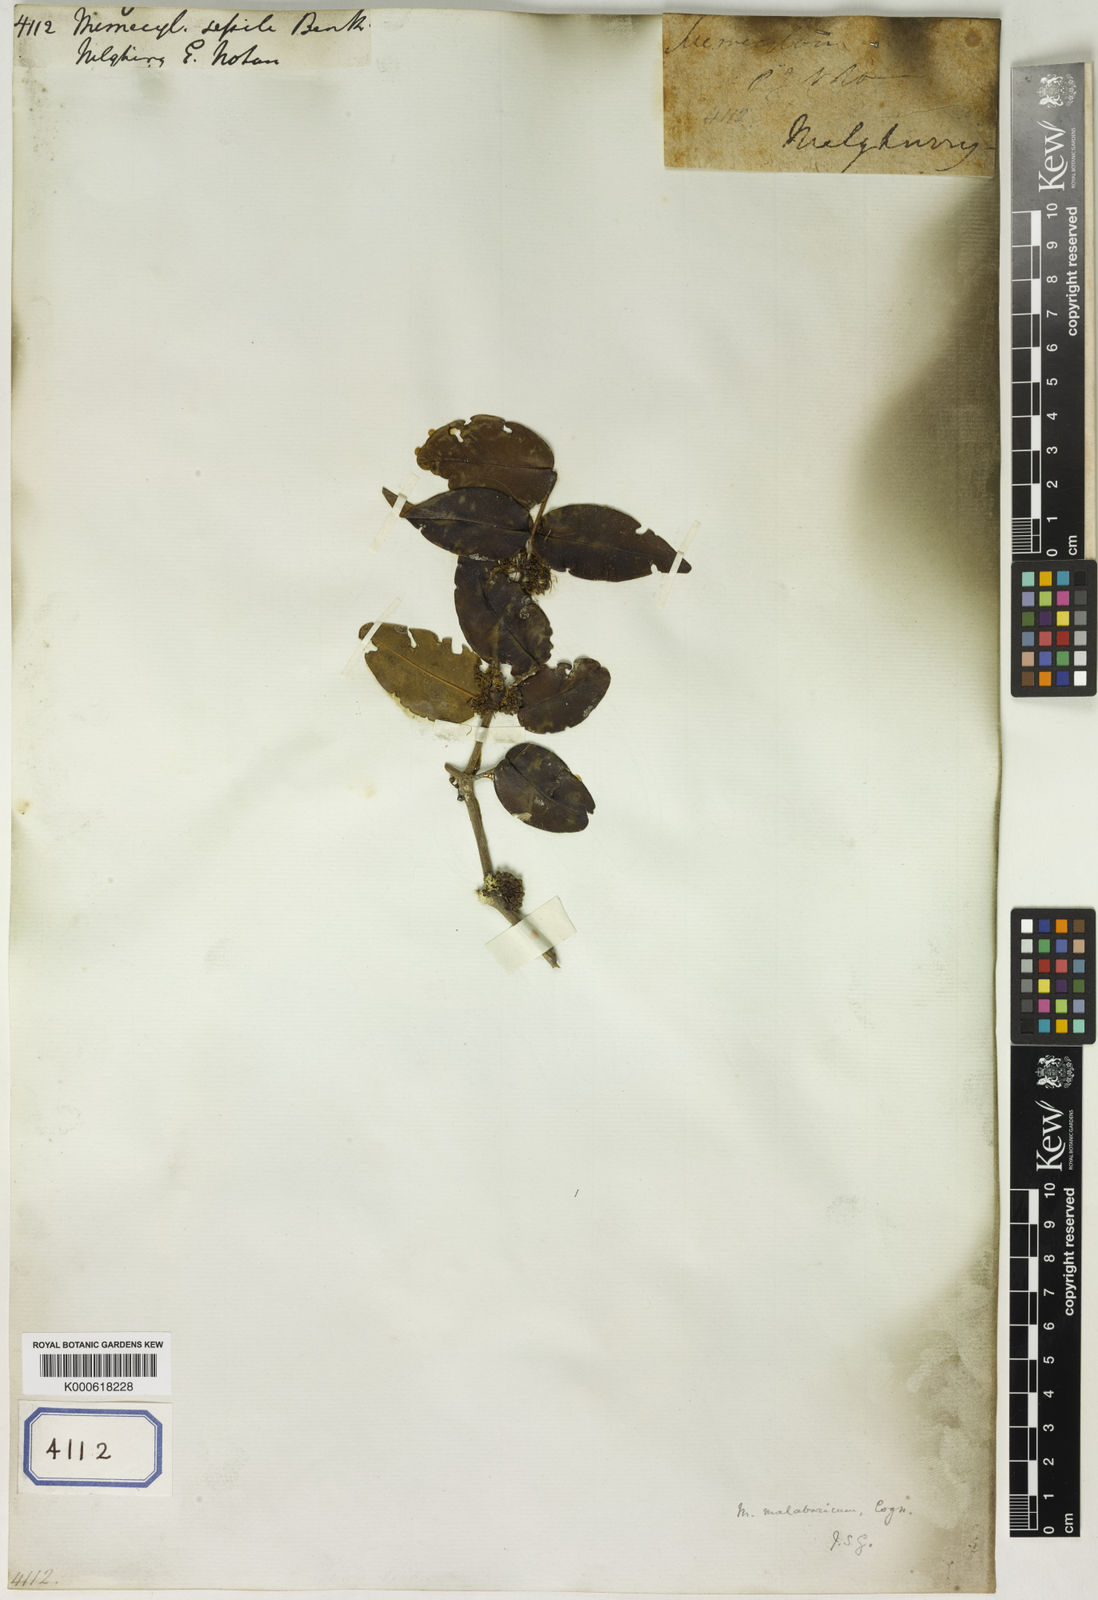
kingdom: Plantae
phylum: Tracheophyta
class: Magnoliopsida
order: Myrtales
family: Melastomataceae
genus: Memecylon
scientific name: Memecylon sessile
